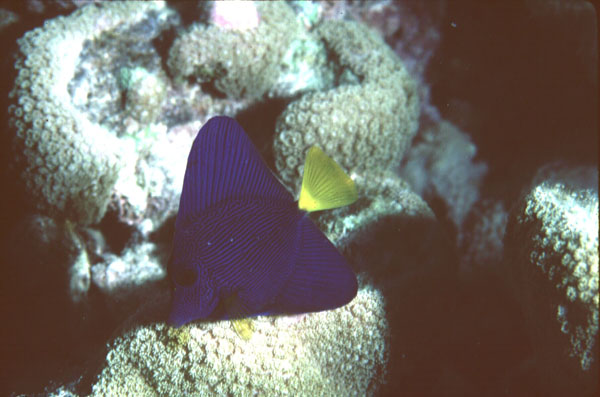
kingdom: Animalia
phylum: Chordata
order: Perciformes
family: Acanthuridae
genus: Zebrasoma
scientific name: Zebrasoma xanthurum
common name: Purple tang
